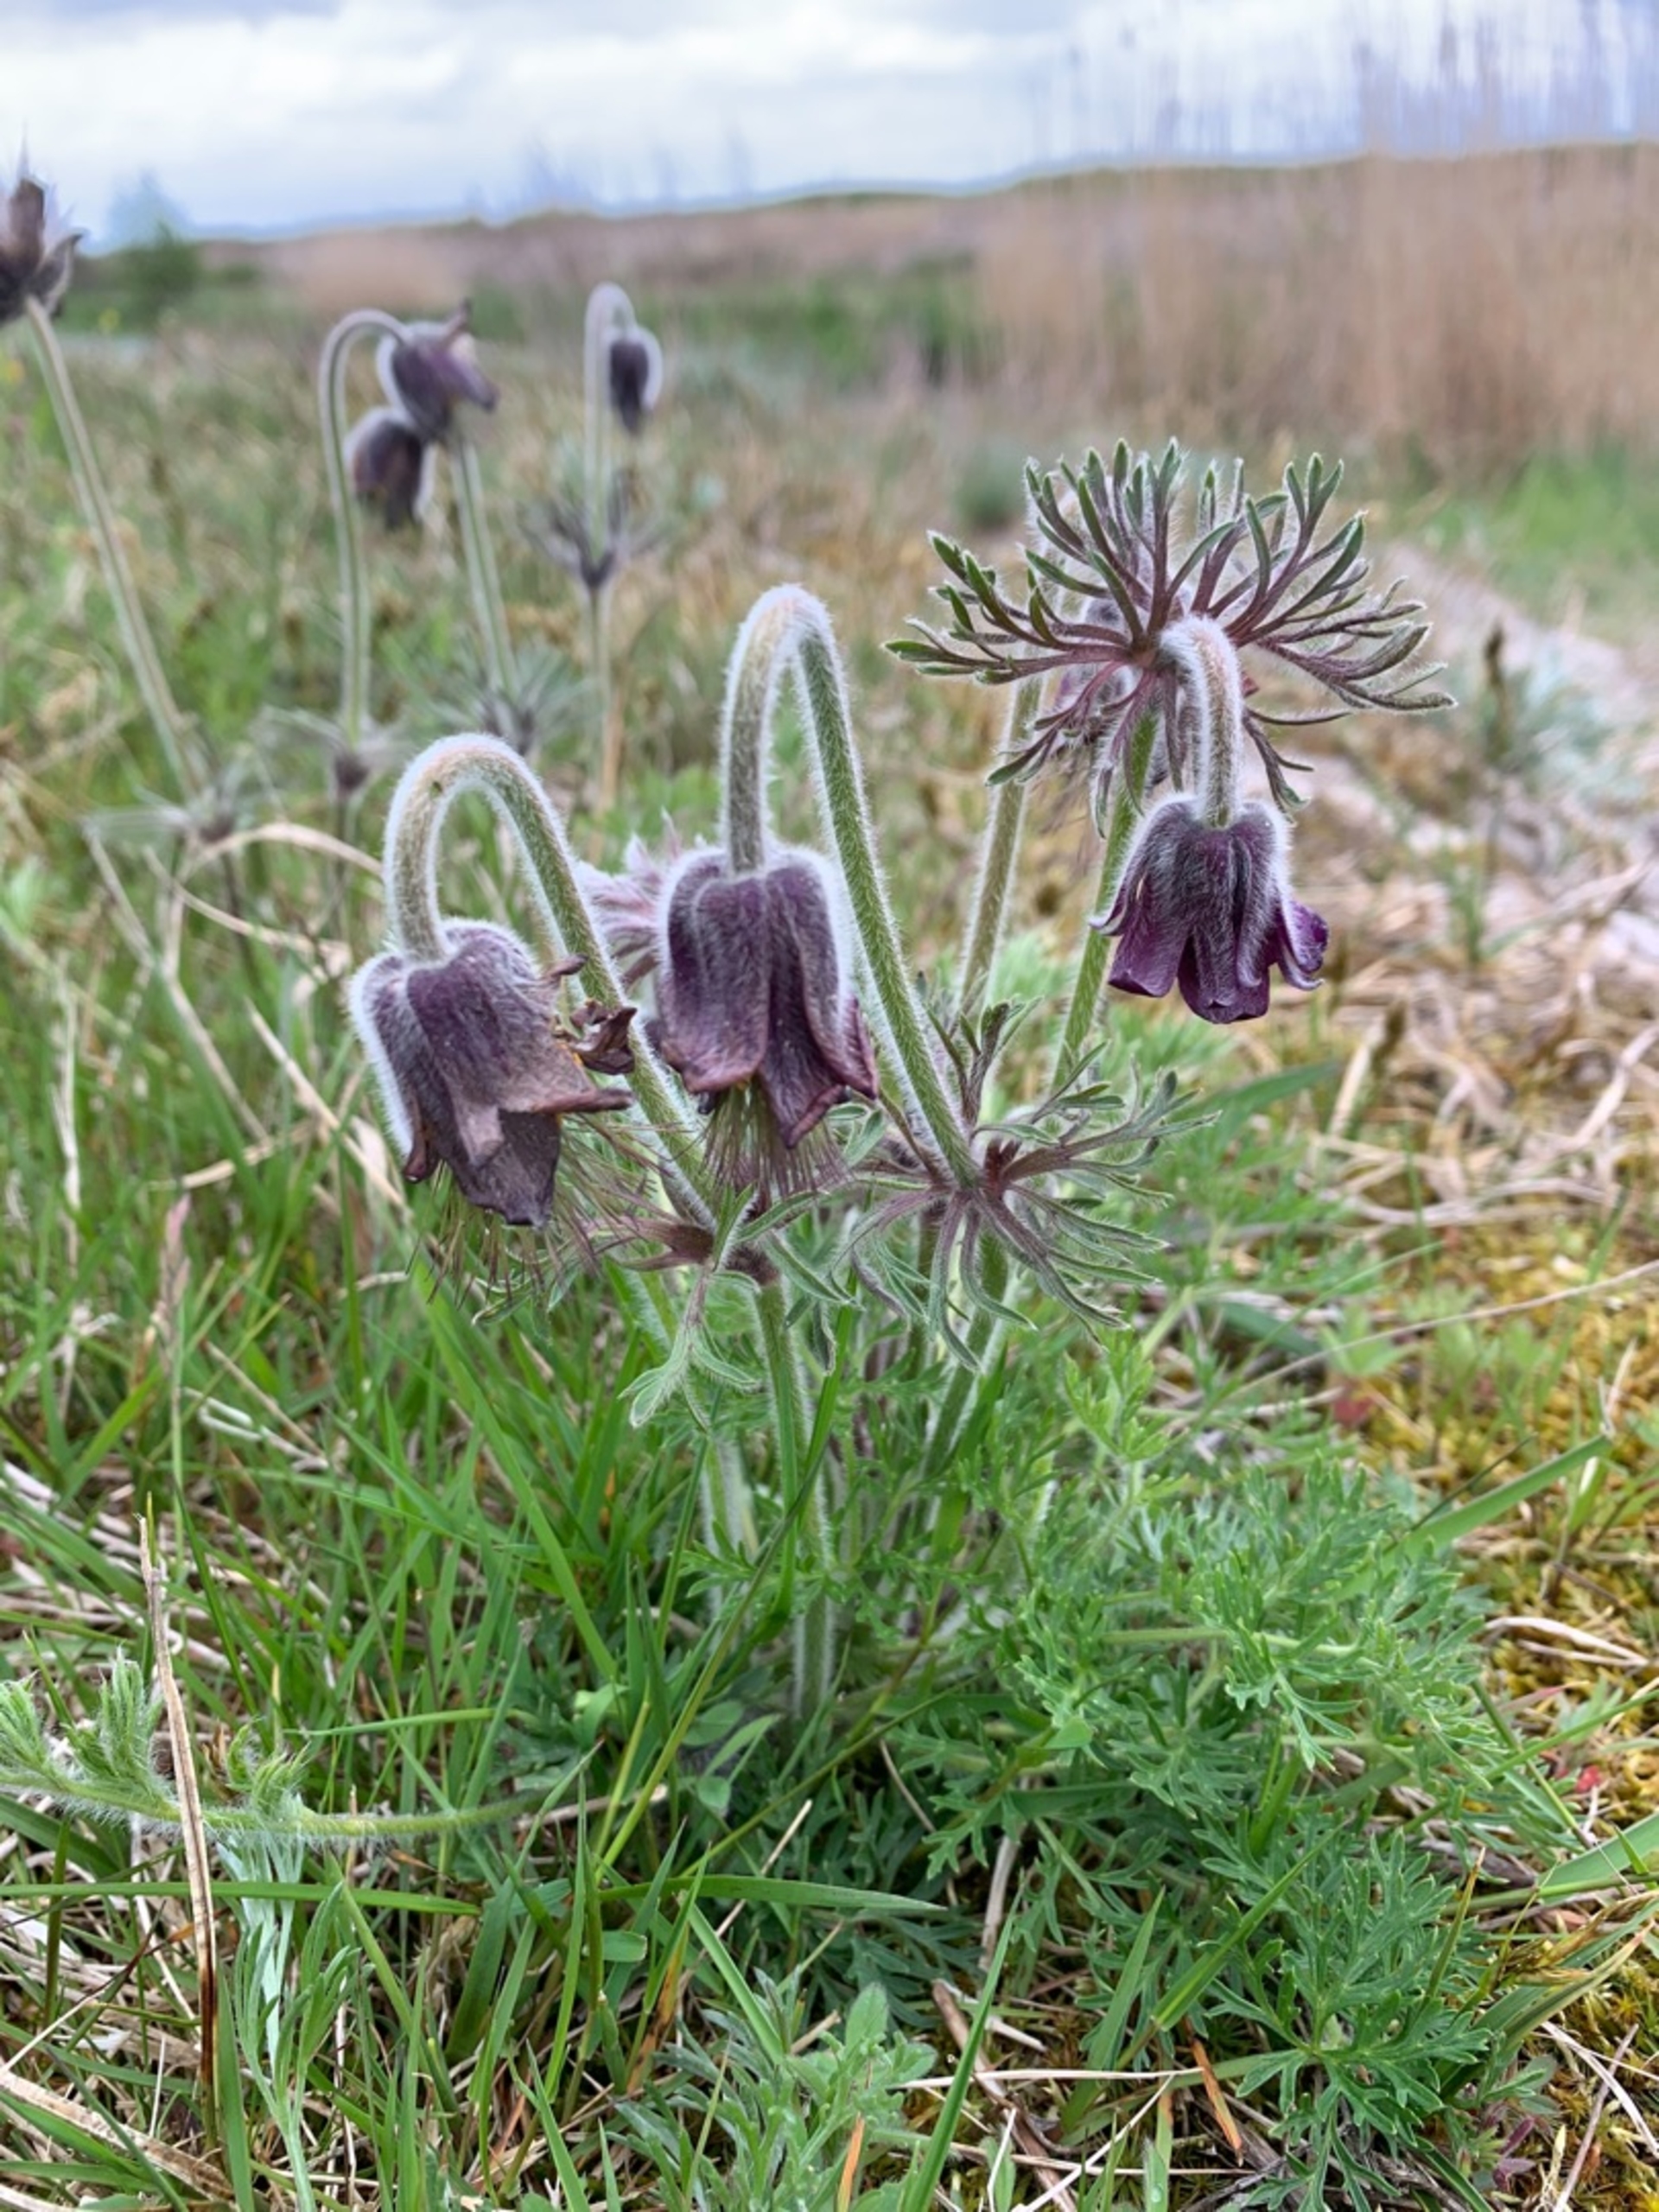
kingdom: Plantae
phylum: Tracheophyta
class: Magnoliopsida
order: Ranunculales
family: Ranunculaceae
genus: Pulsatilla
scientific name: Pulsatilla pratensis
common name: Nikkende kobjælde
